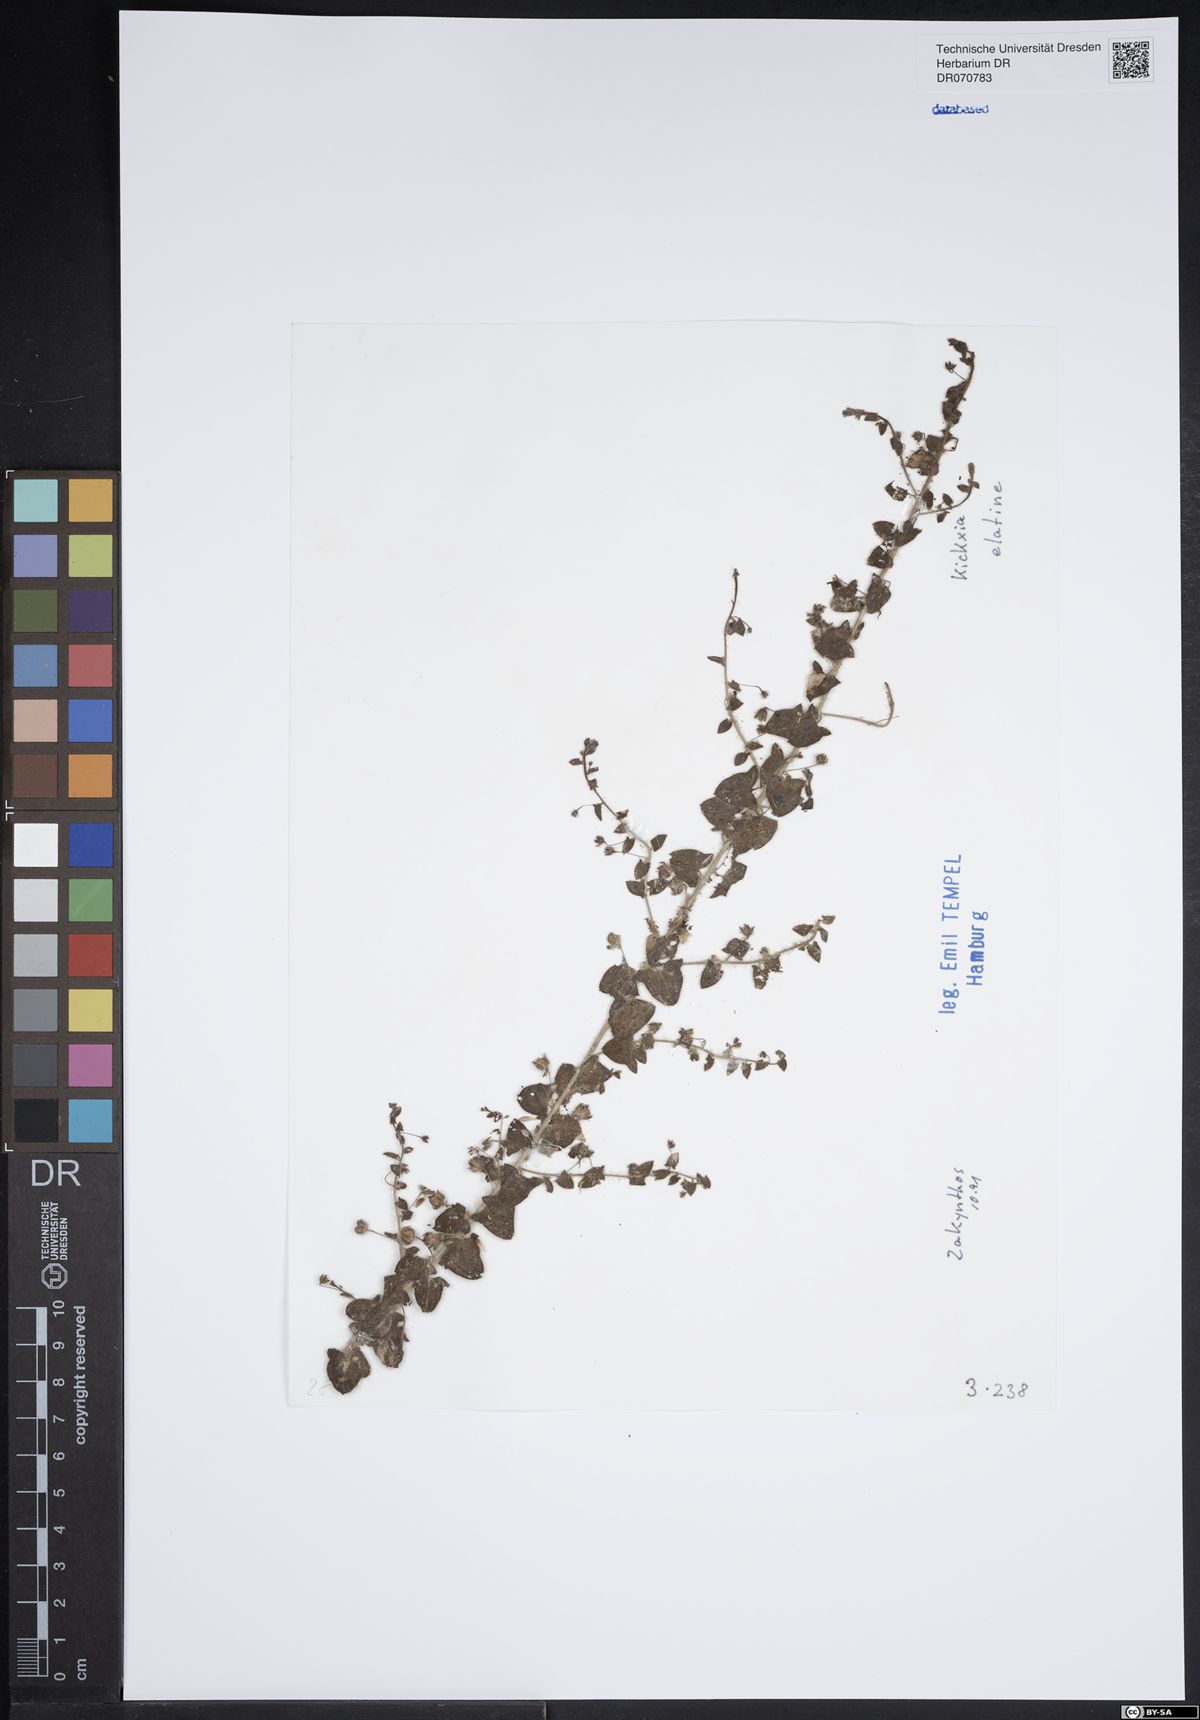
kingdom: Plantae
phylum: Tracheophyta
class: Magnoliopsida
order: Lamiales
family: Plantaginaceae
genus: Kickxia
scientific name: Kickxia elatine
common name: Sharp-leaved fluellen
